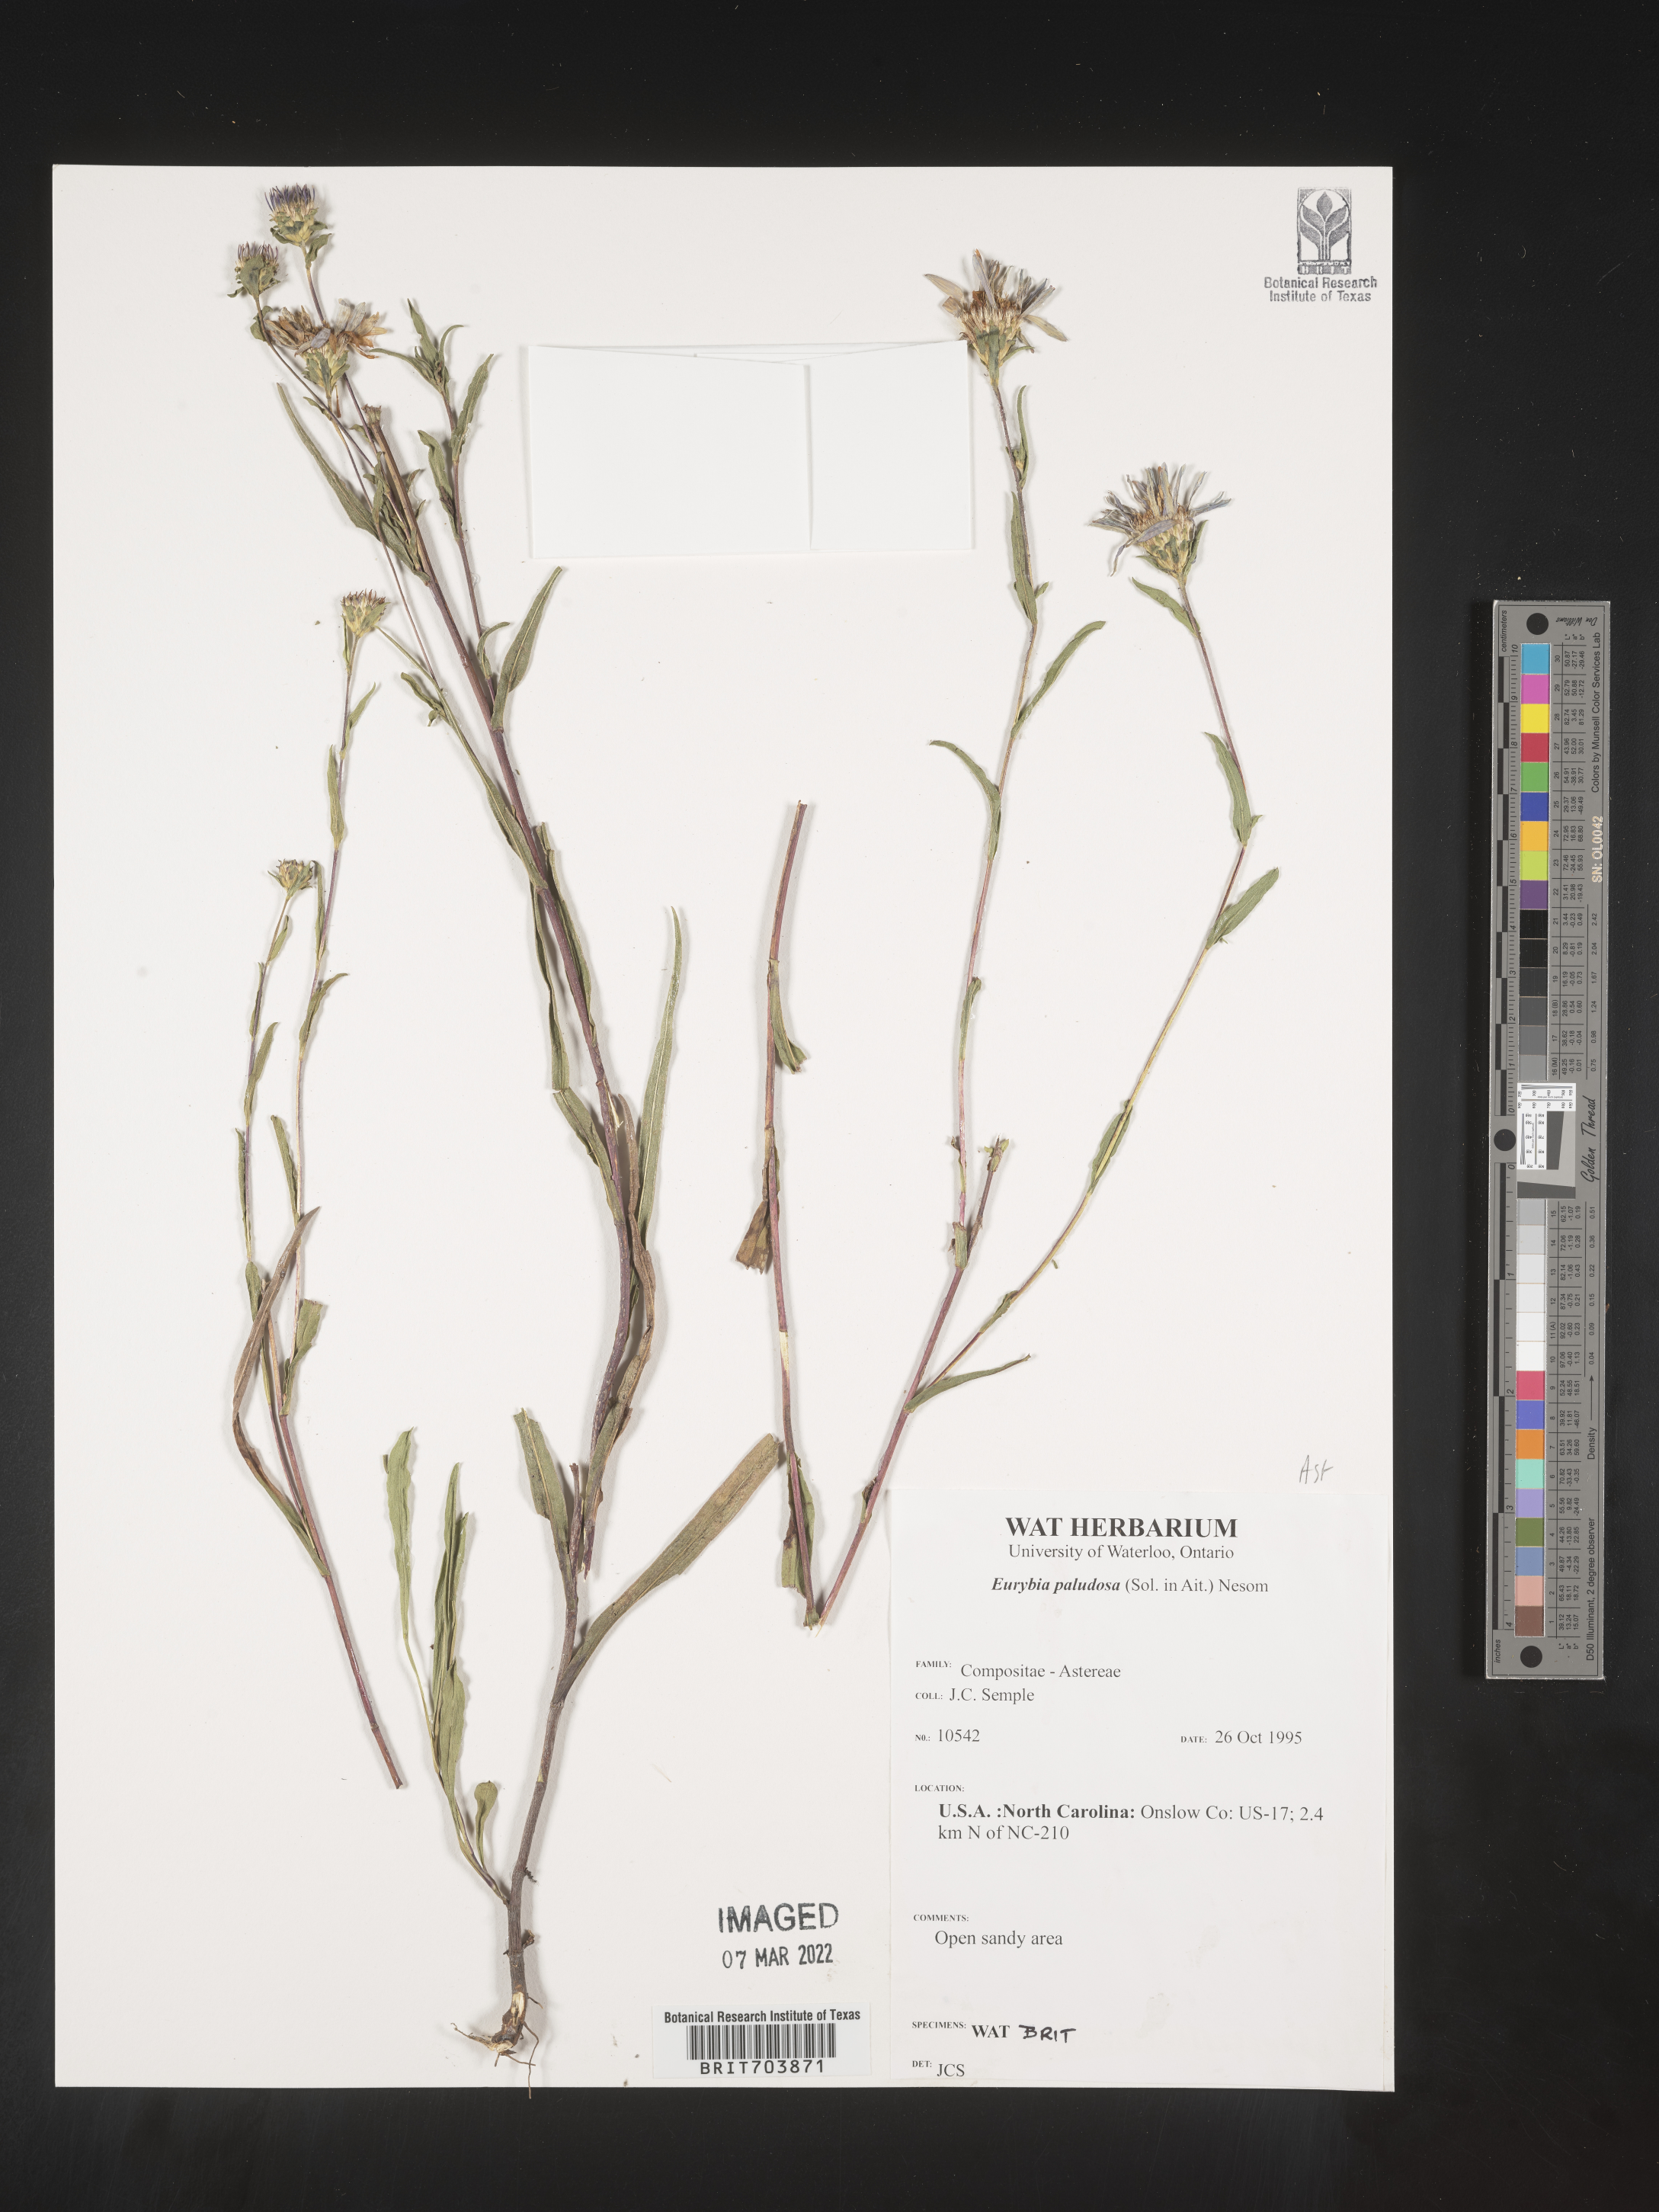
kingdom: Plantae
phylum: Tracheophyta
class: Magnoliopsida
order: Asterales
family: Asteraceae
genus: Eurybia
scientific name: Eurybia paludosa
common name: Southern swamp aster
